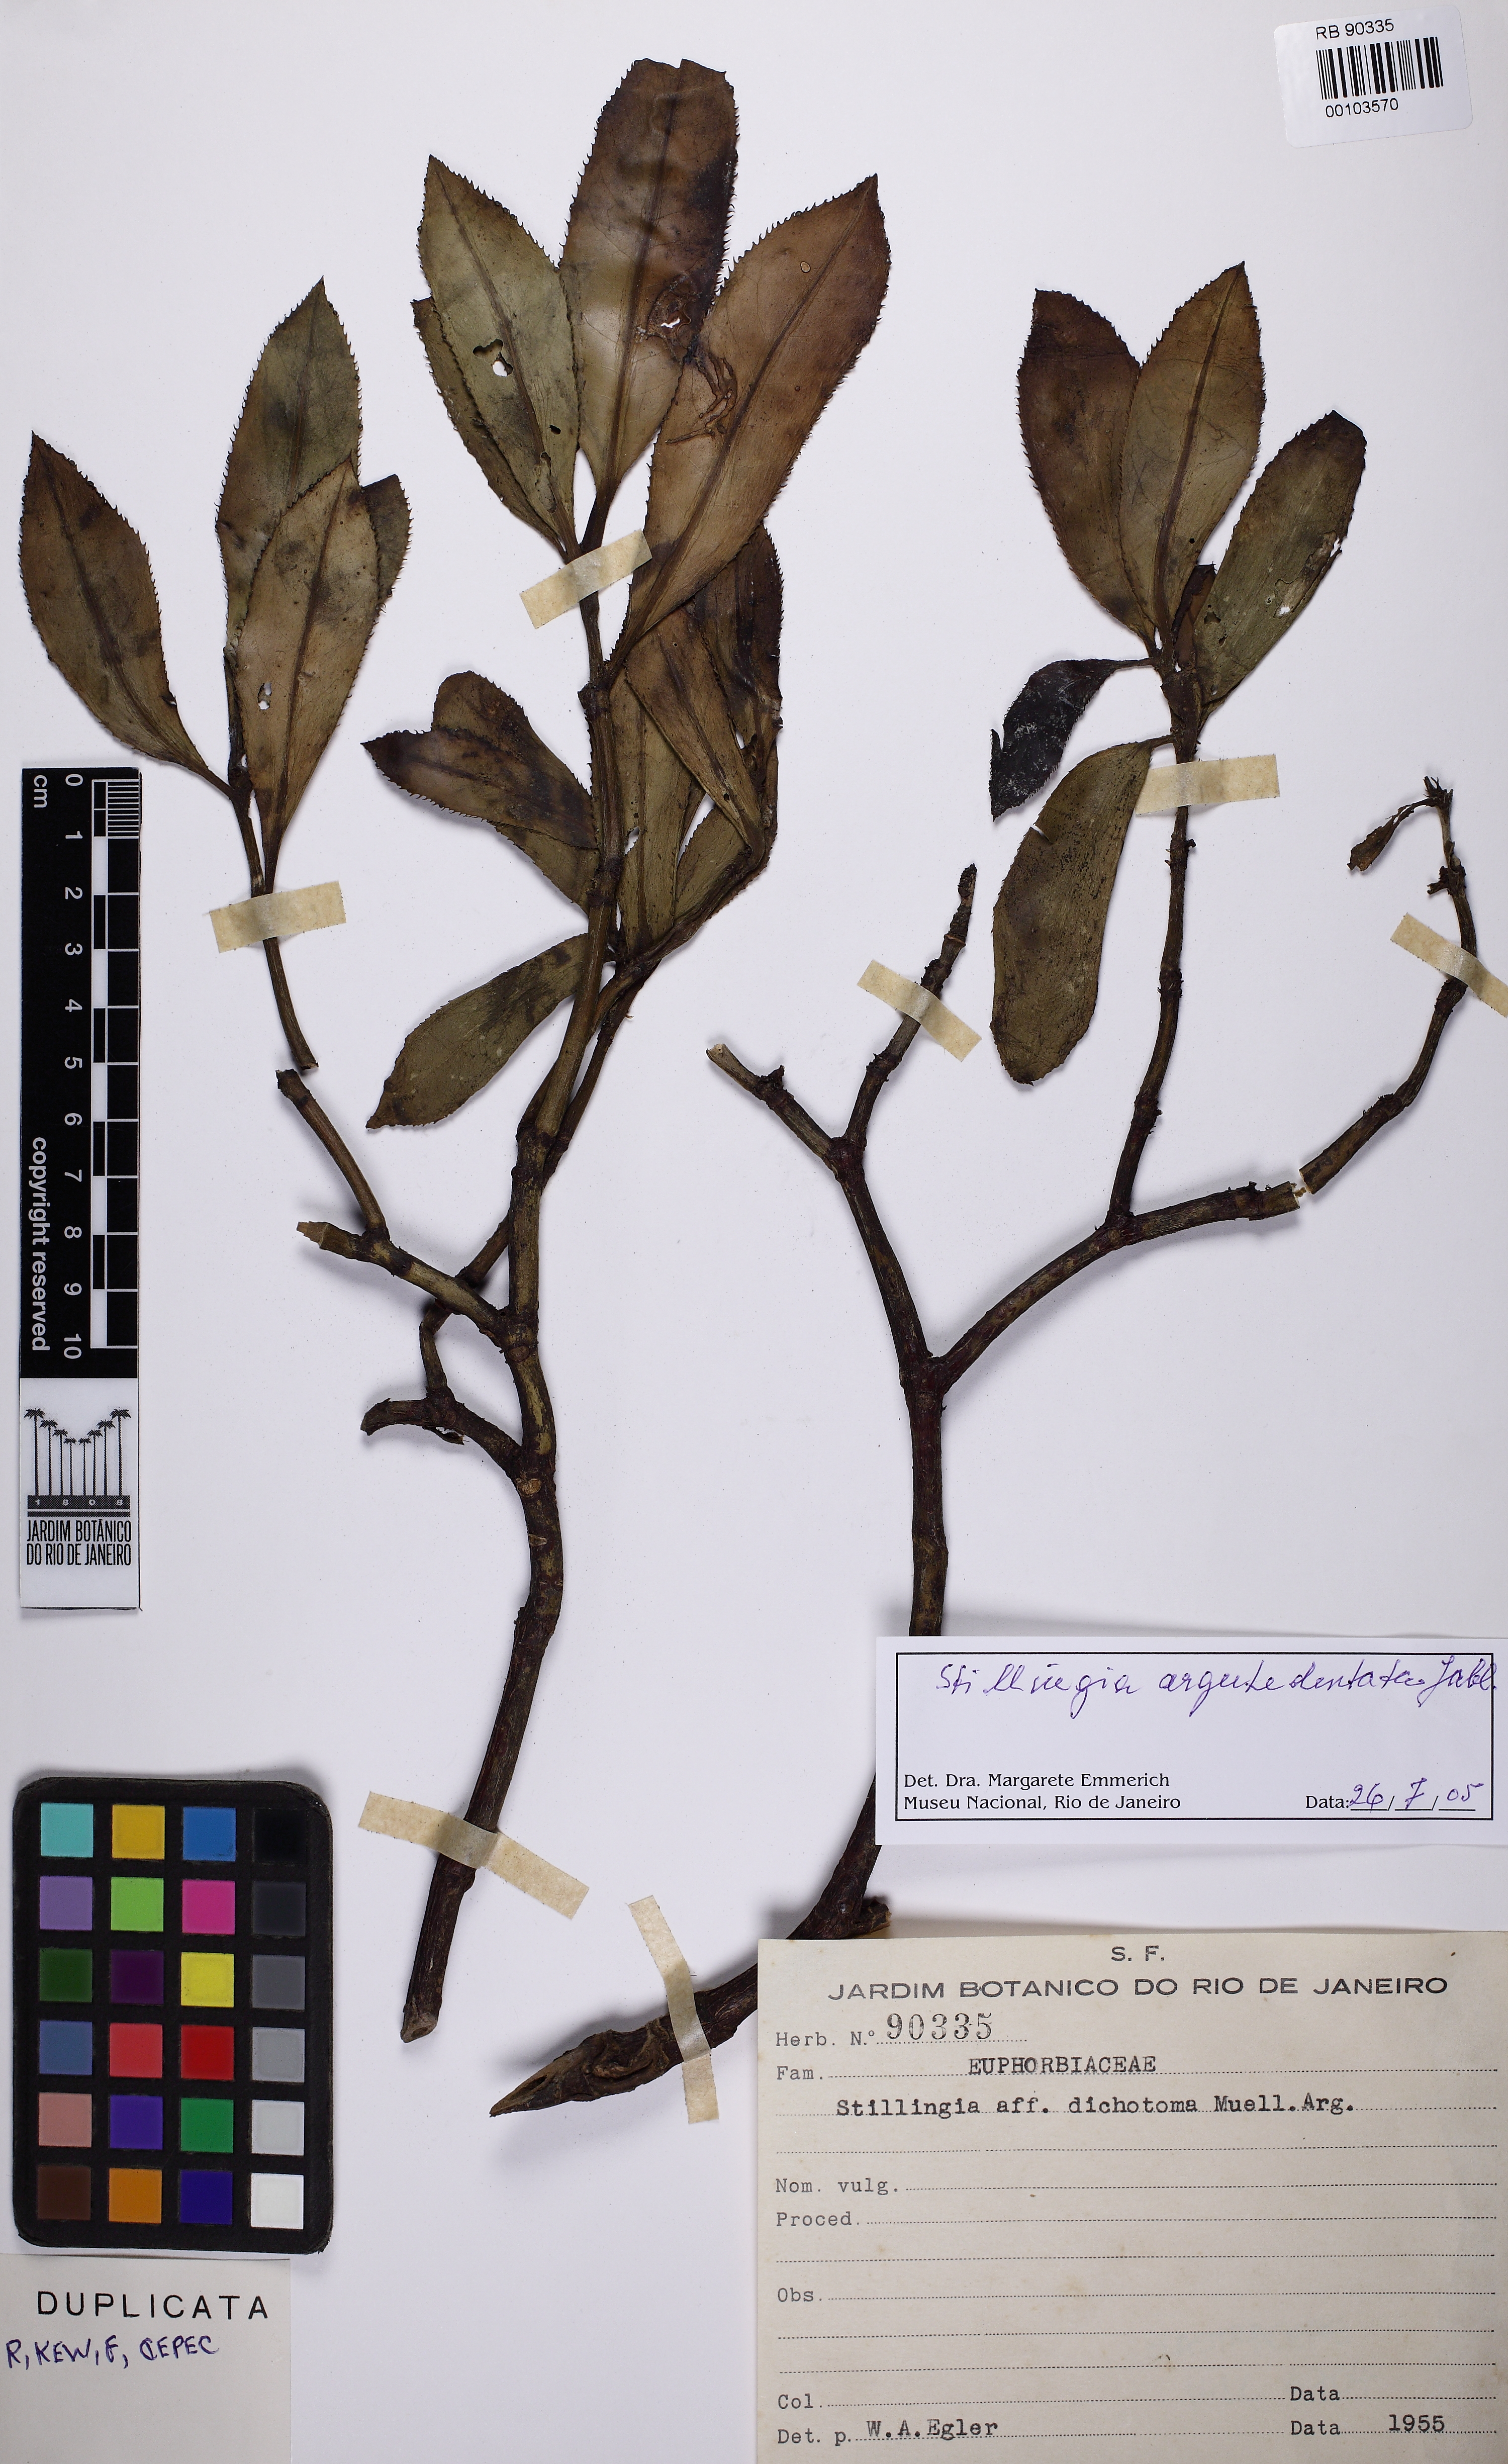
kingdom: Plantae
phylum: Tracheophyta
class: Magnoliopsida
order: Malpighiales
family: Euphorbiaceae
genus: Stillingia
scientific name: Stillingia argutedentata
